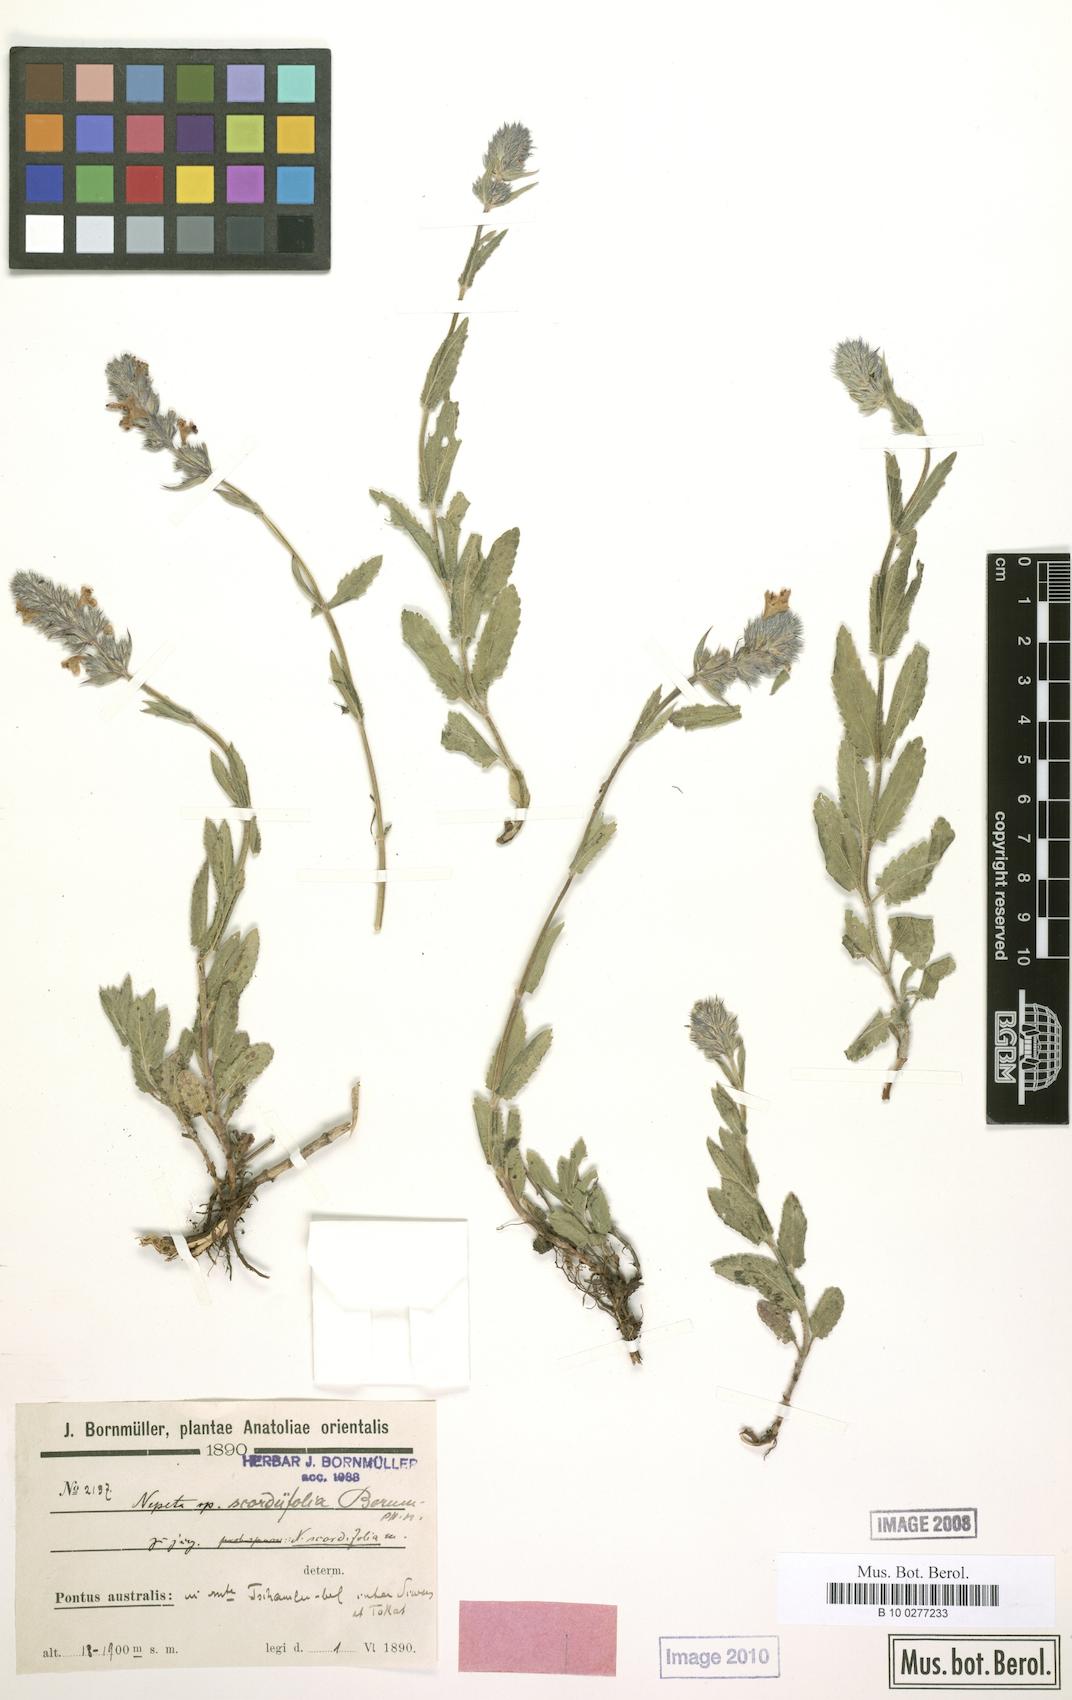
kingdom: Plantae
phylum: Tracheophyta
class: Magnoliopsida
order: Lamiales
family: Lamiaceae
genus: Nepeta
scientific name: Nepeta scordiifolia
